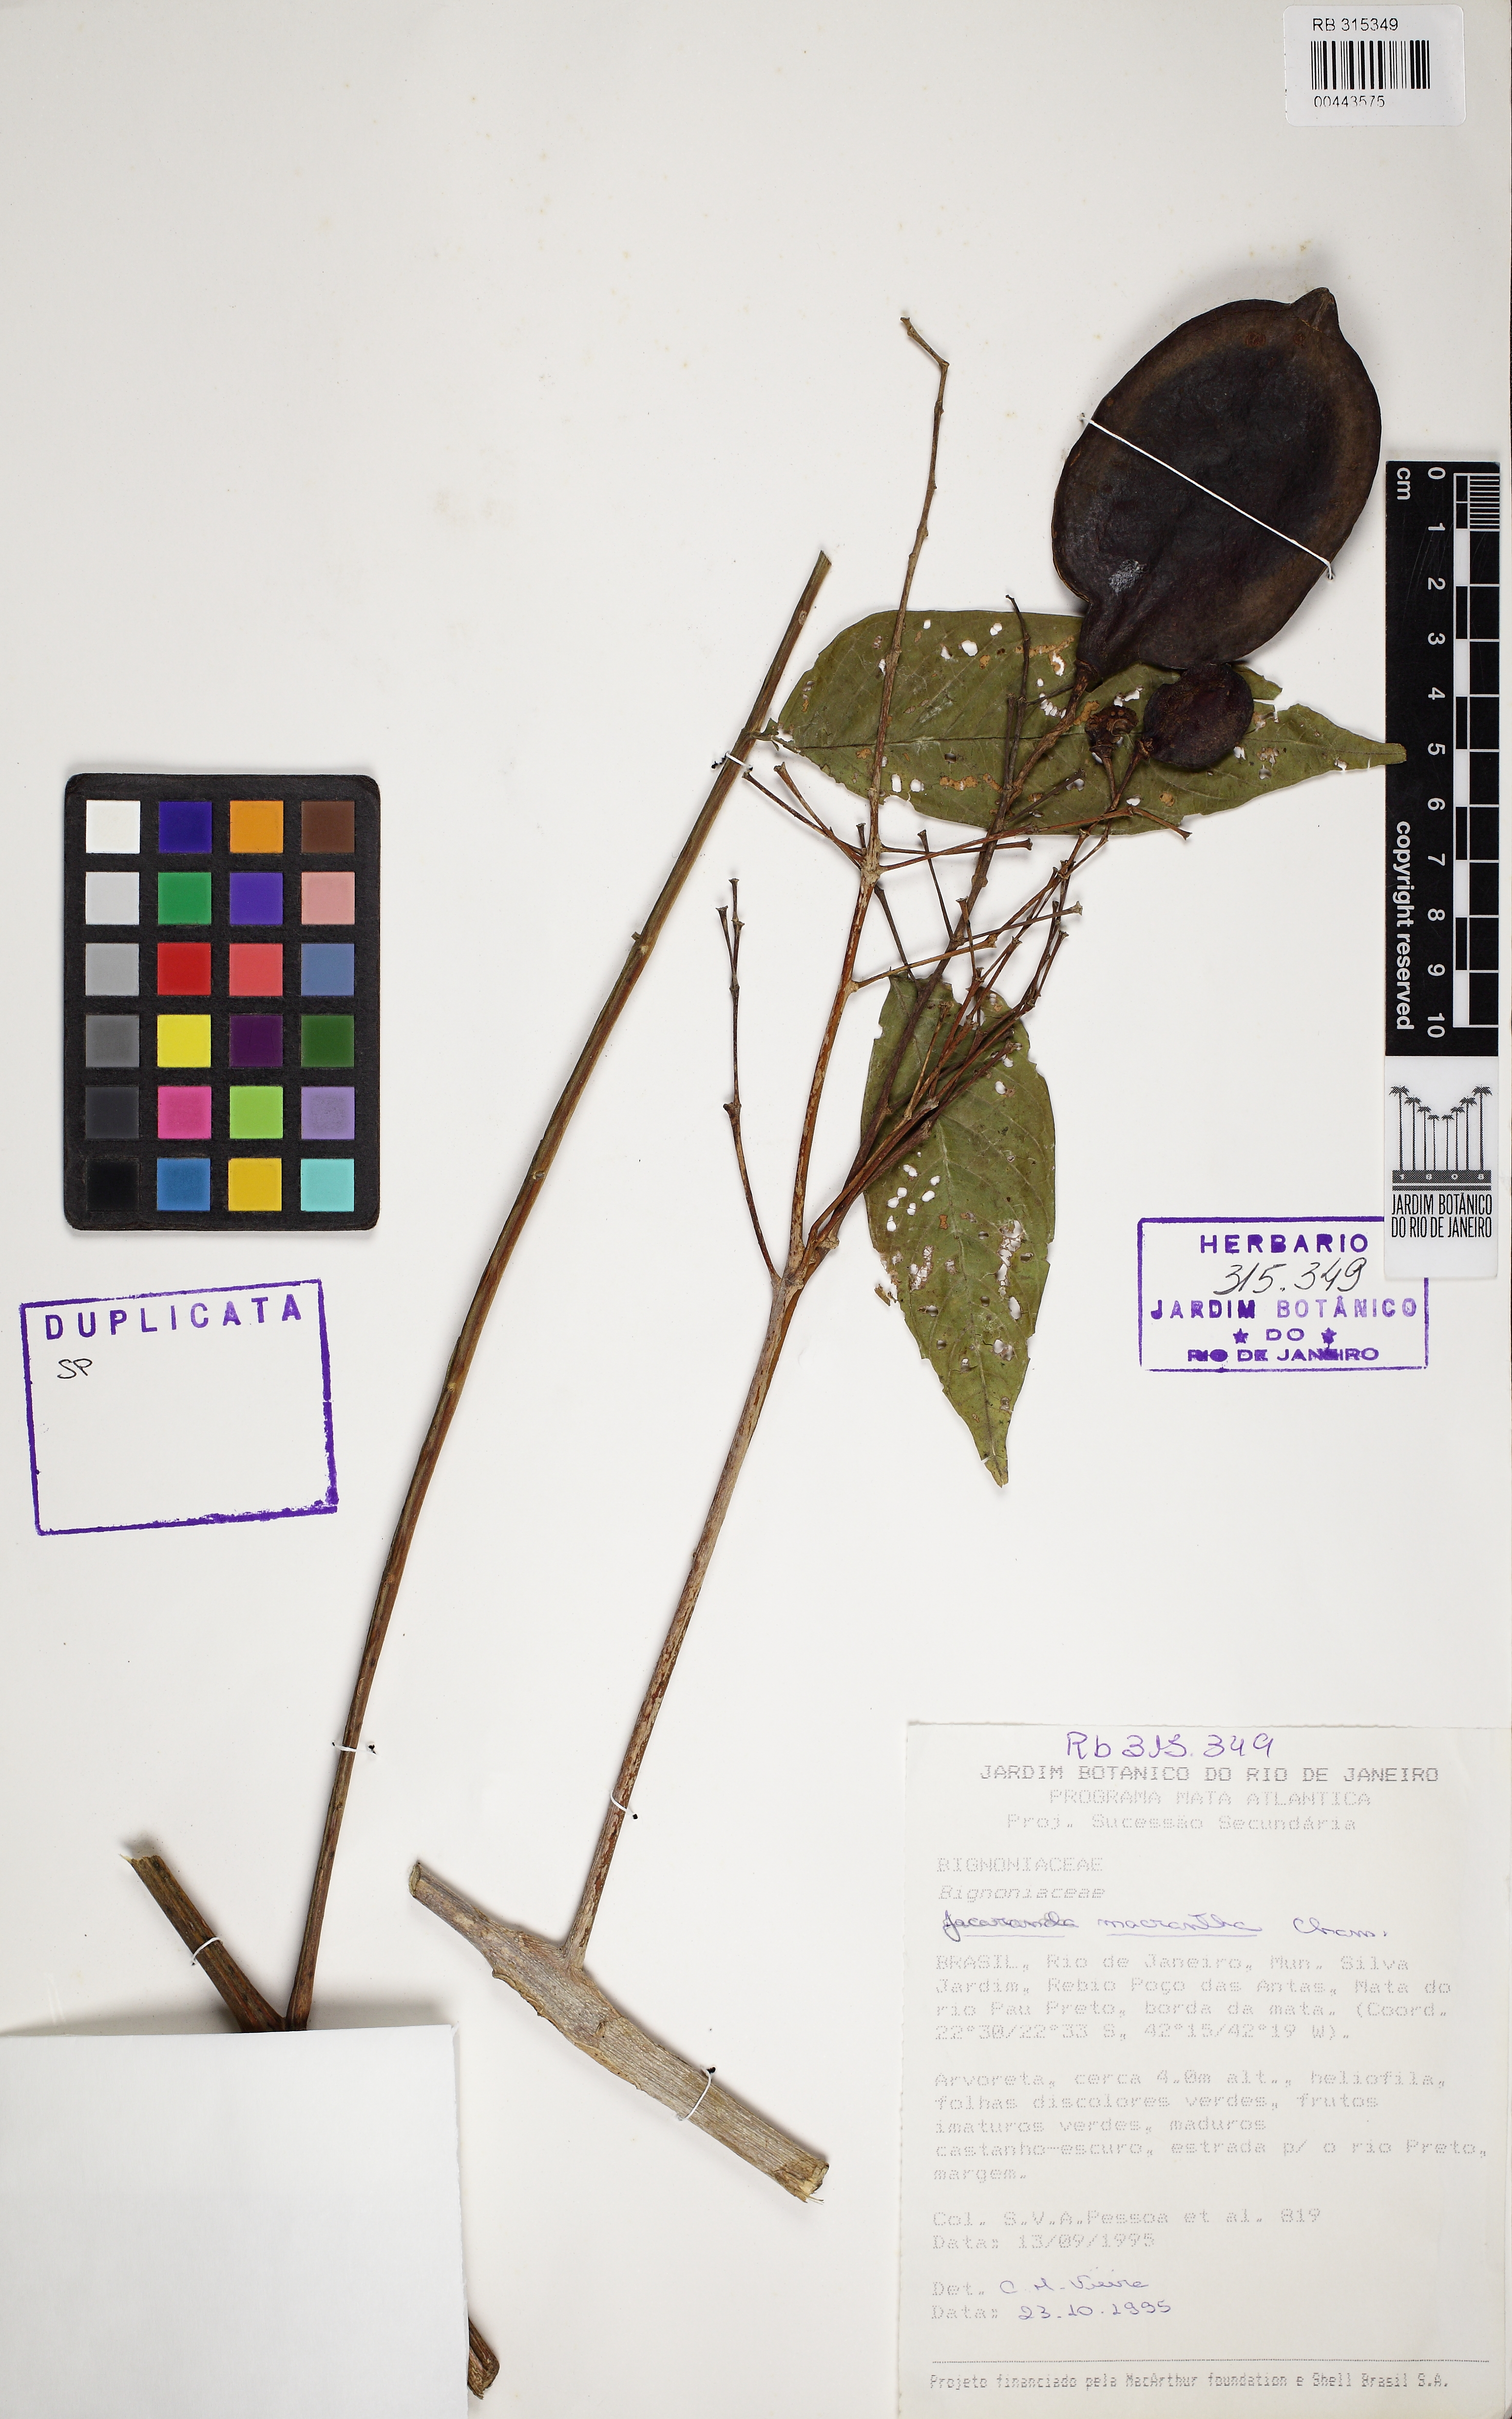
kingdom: Plantae
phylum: Tracheophyta
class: Magnoliopsida
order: Lamiales
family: Bignoniaceae
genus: Jacaranda
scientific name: Jacaranda macrantha
